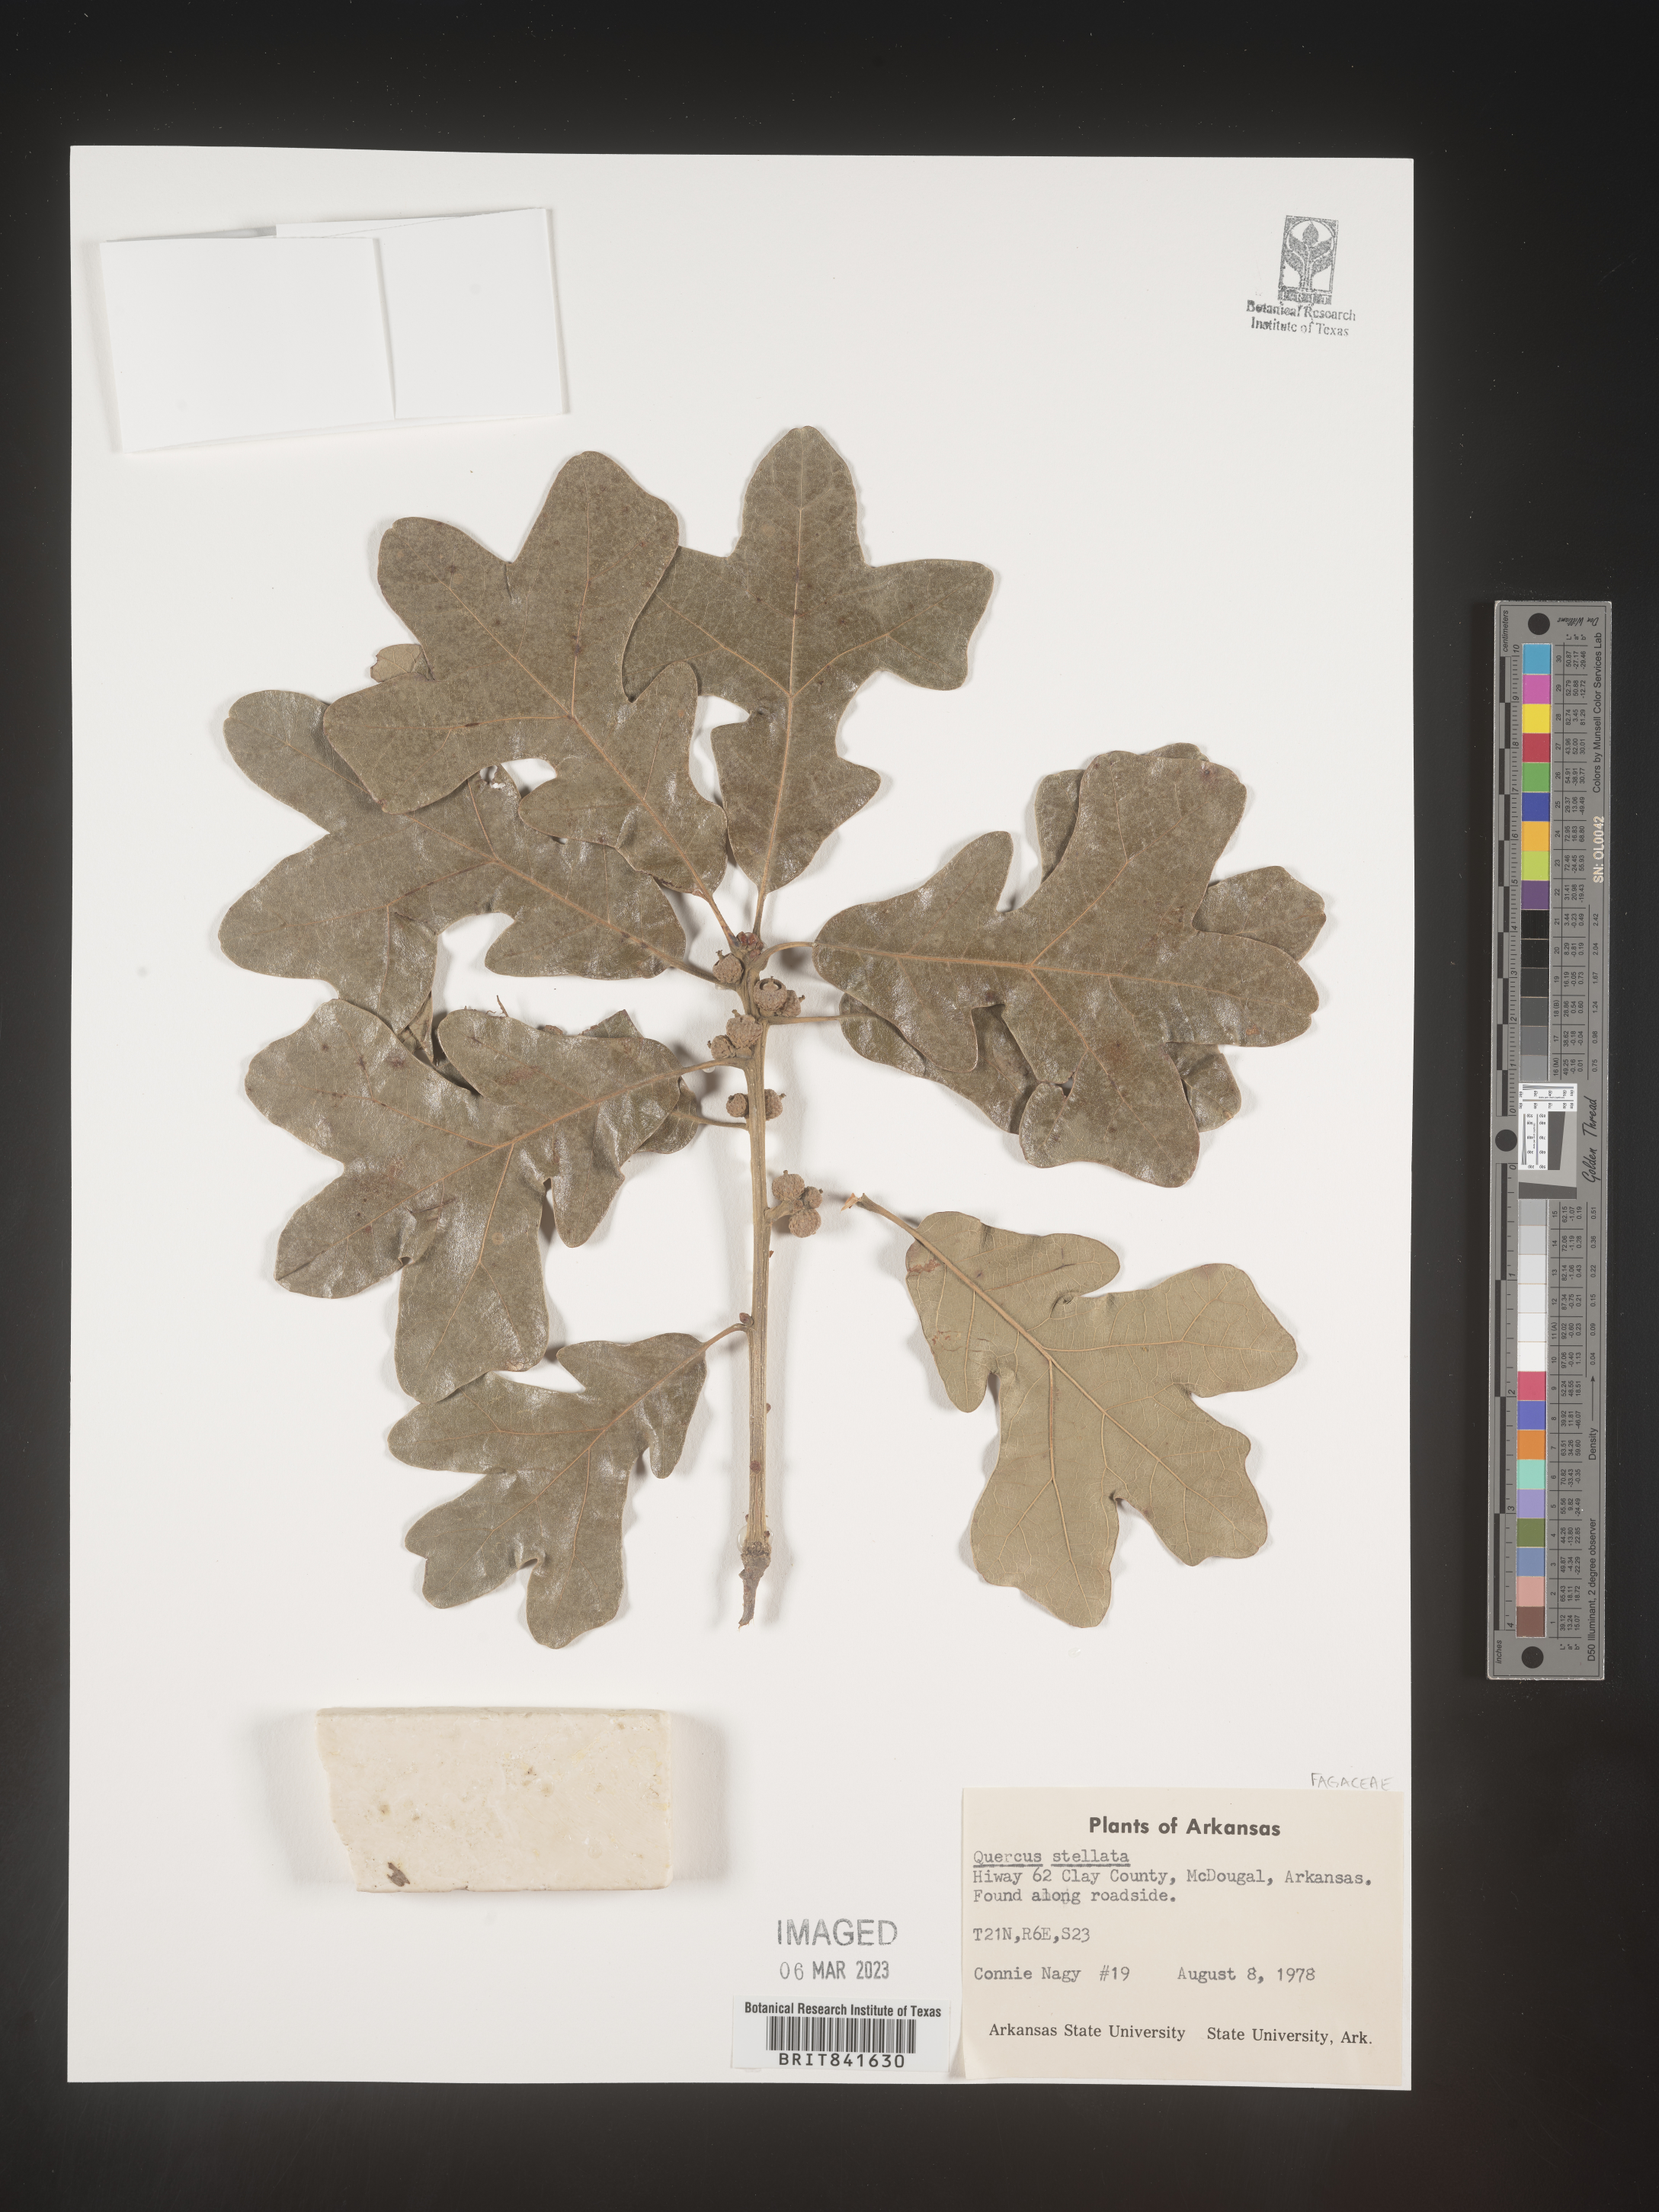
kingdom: Plantae
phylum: Tracheophyta
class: Magnoliopsida
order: Fagales
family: Fagaceae
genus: Quercus
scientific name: Quercus stellata
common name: Post oak
